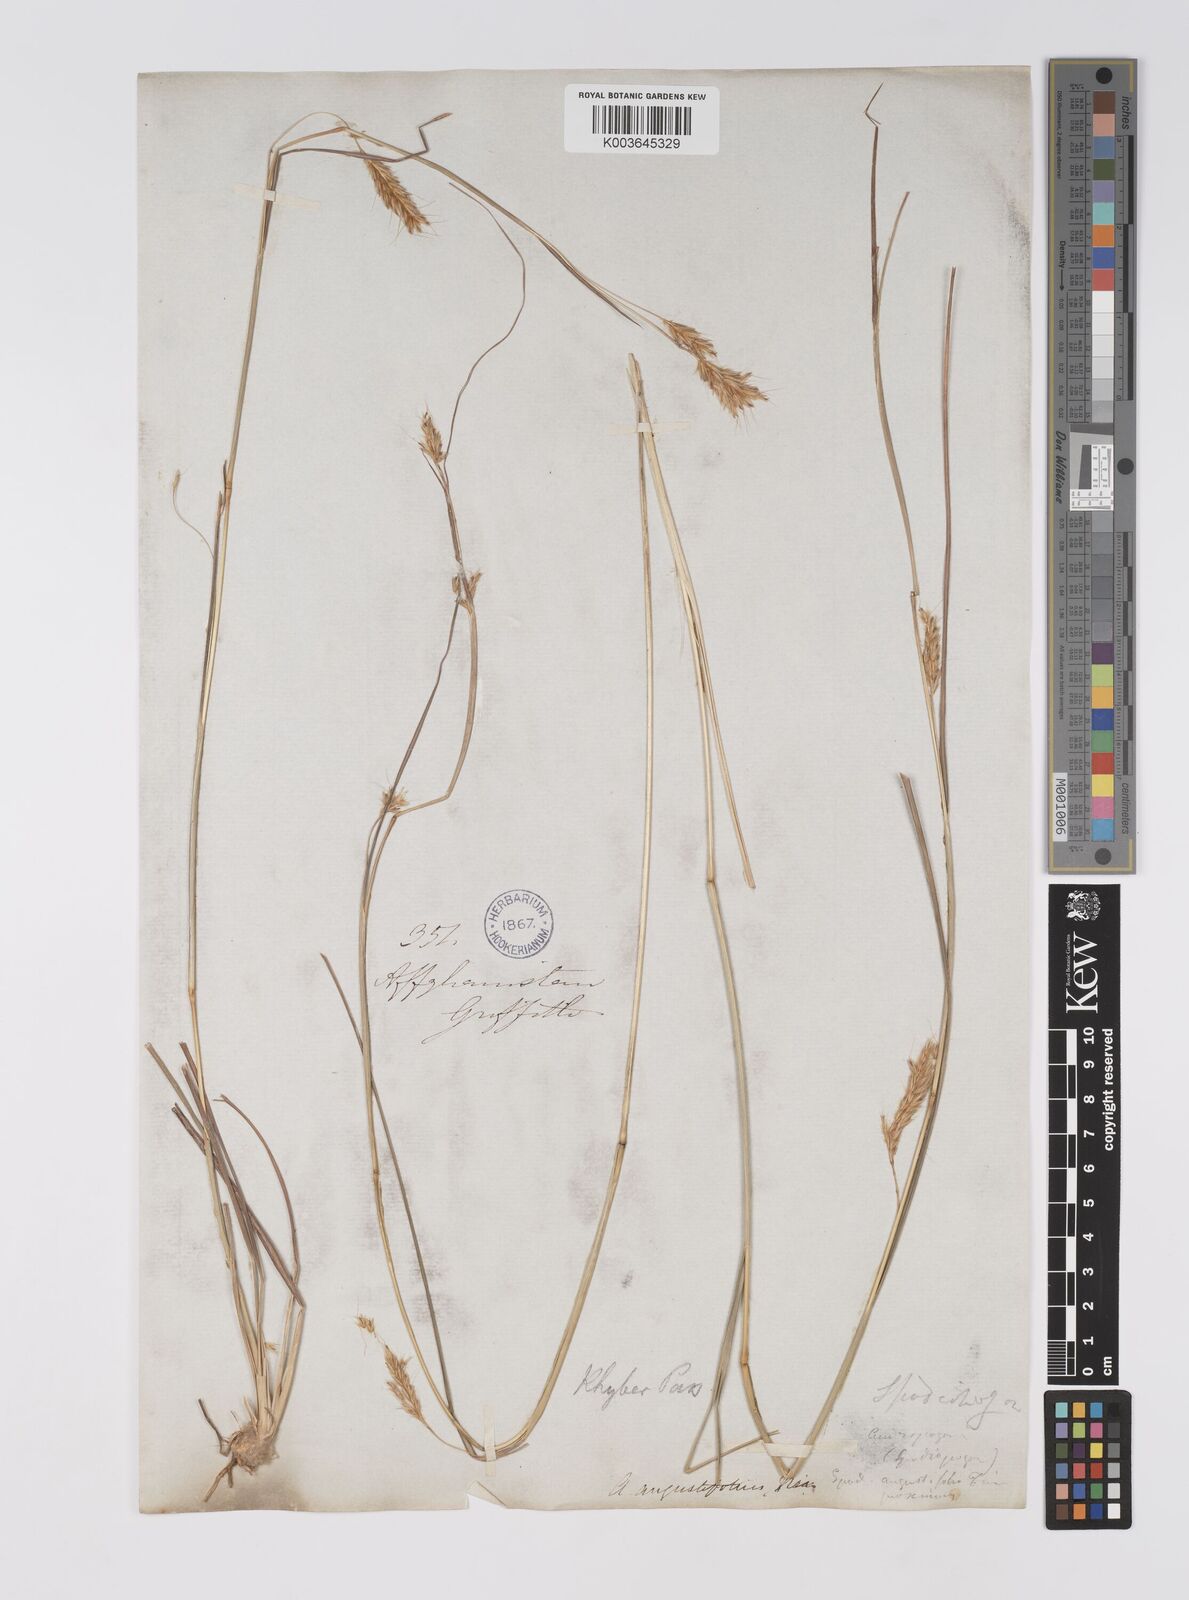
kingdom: Plantae
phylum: Tracheophyta
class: Liliopsida
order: Poales
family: Poaceae
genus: Eulaliopsis
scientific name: Eulaliopsis binata
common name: Baib grass
